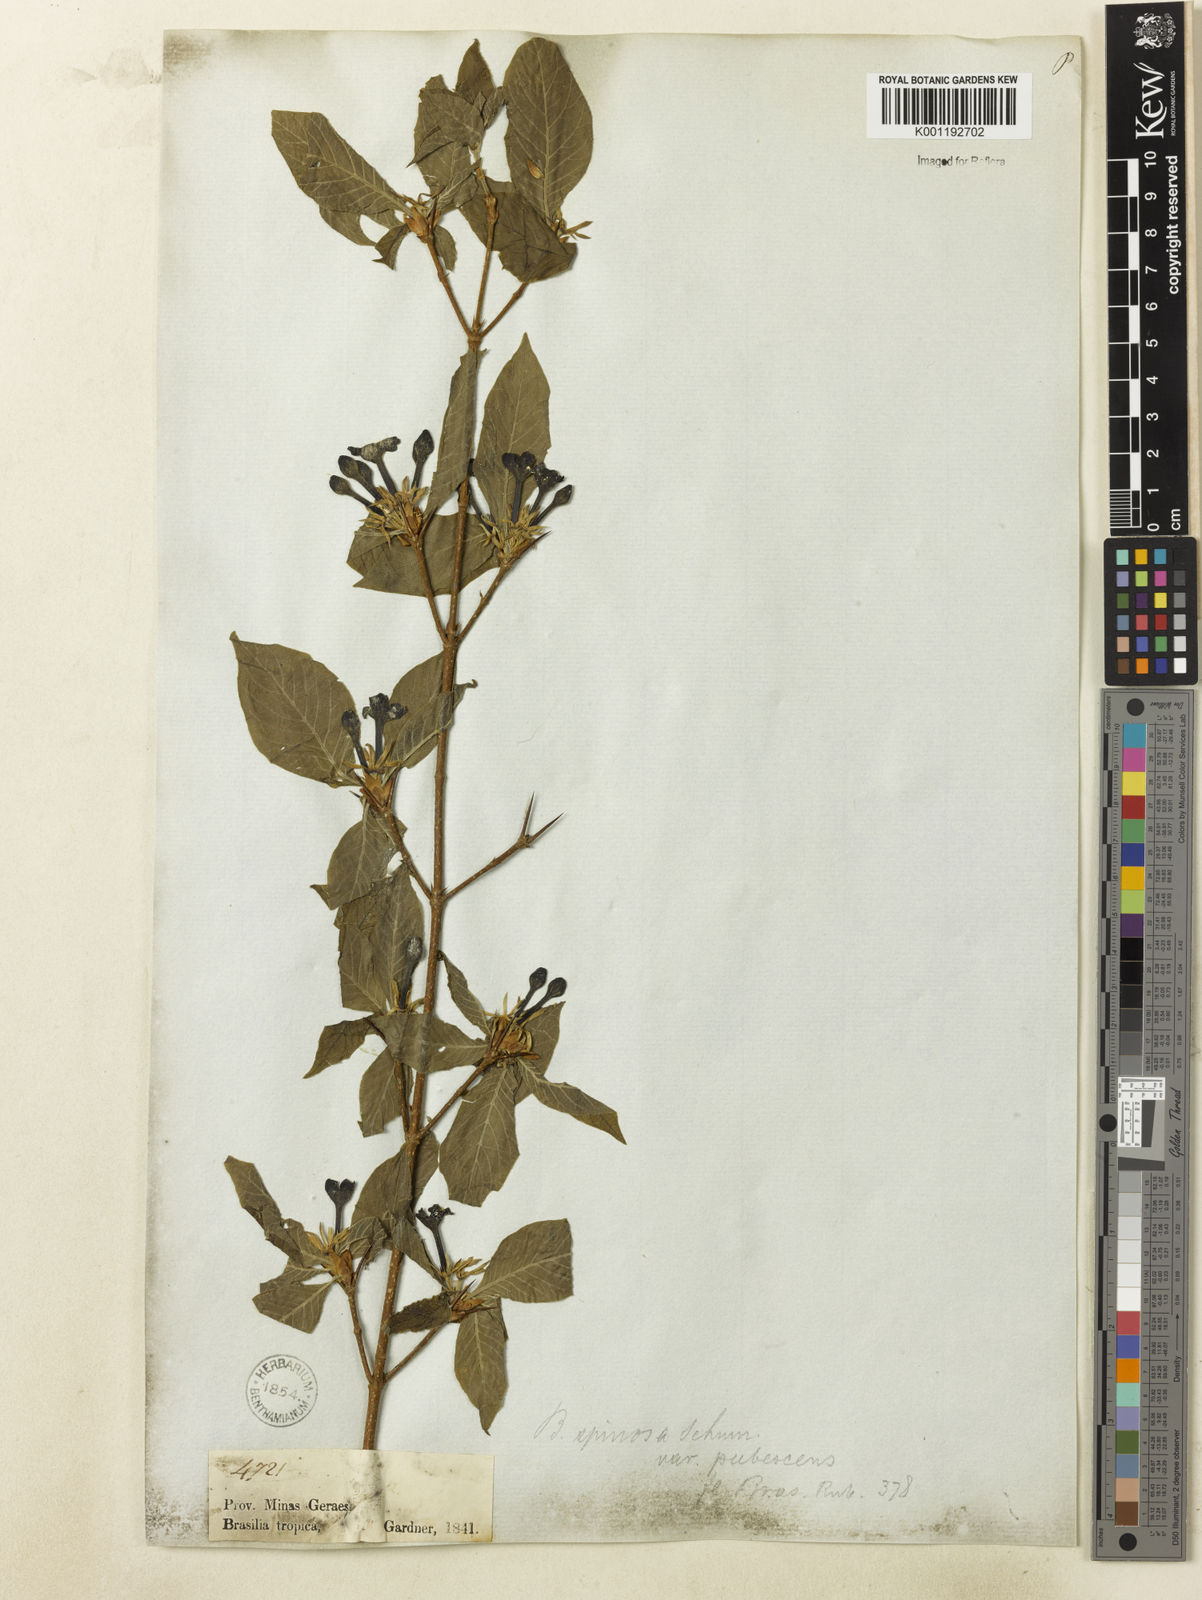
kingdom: Plantae
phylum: Tracheophyta
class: Magnoliopsida
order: Gentianales
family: Rubiaceae
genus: Randia
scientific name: Randia nitida
